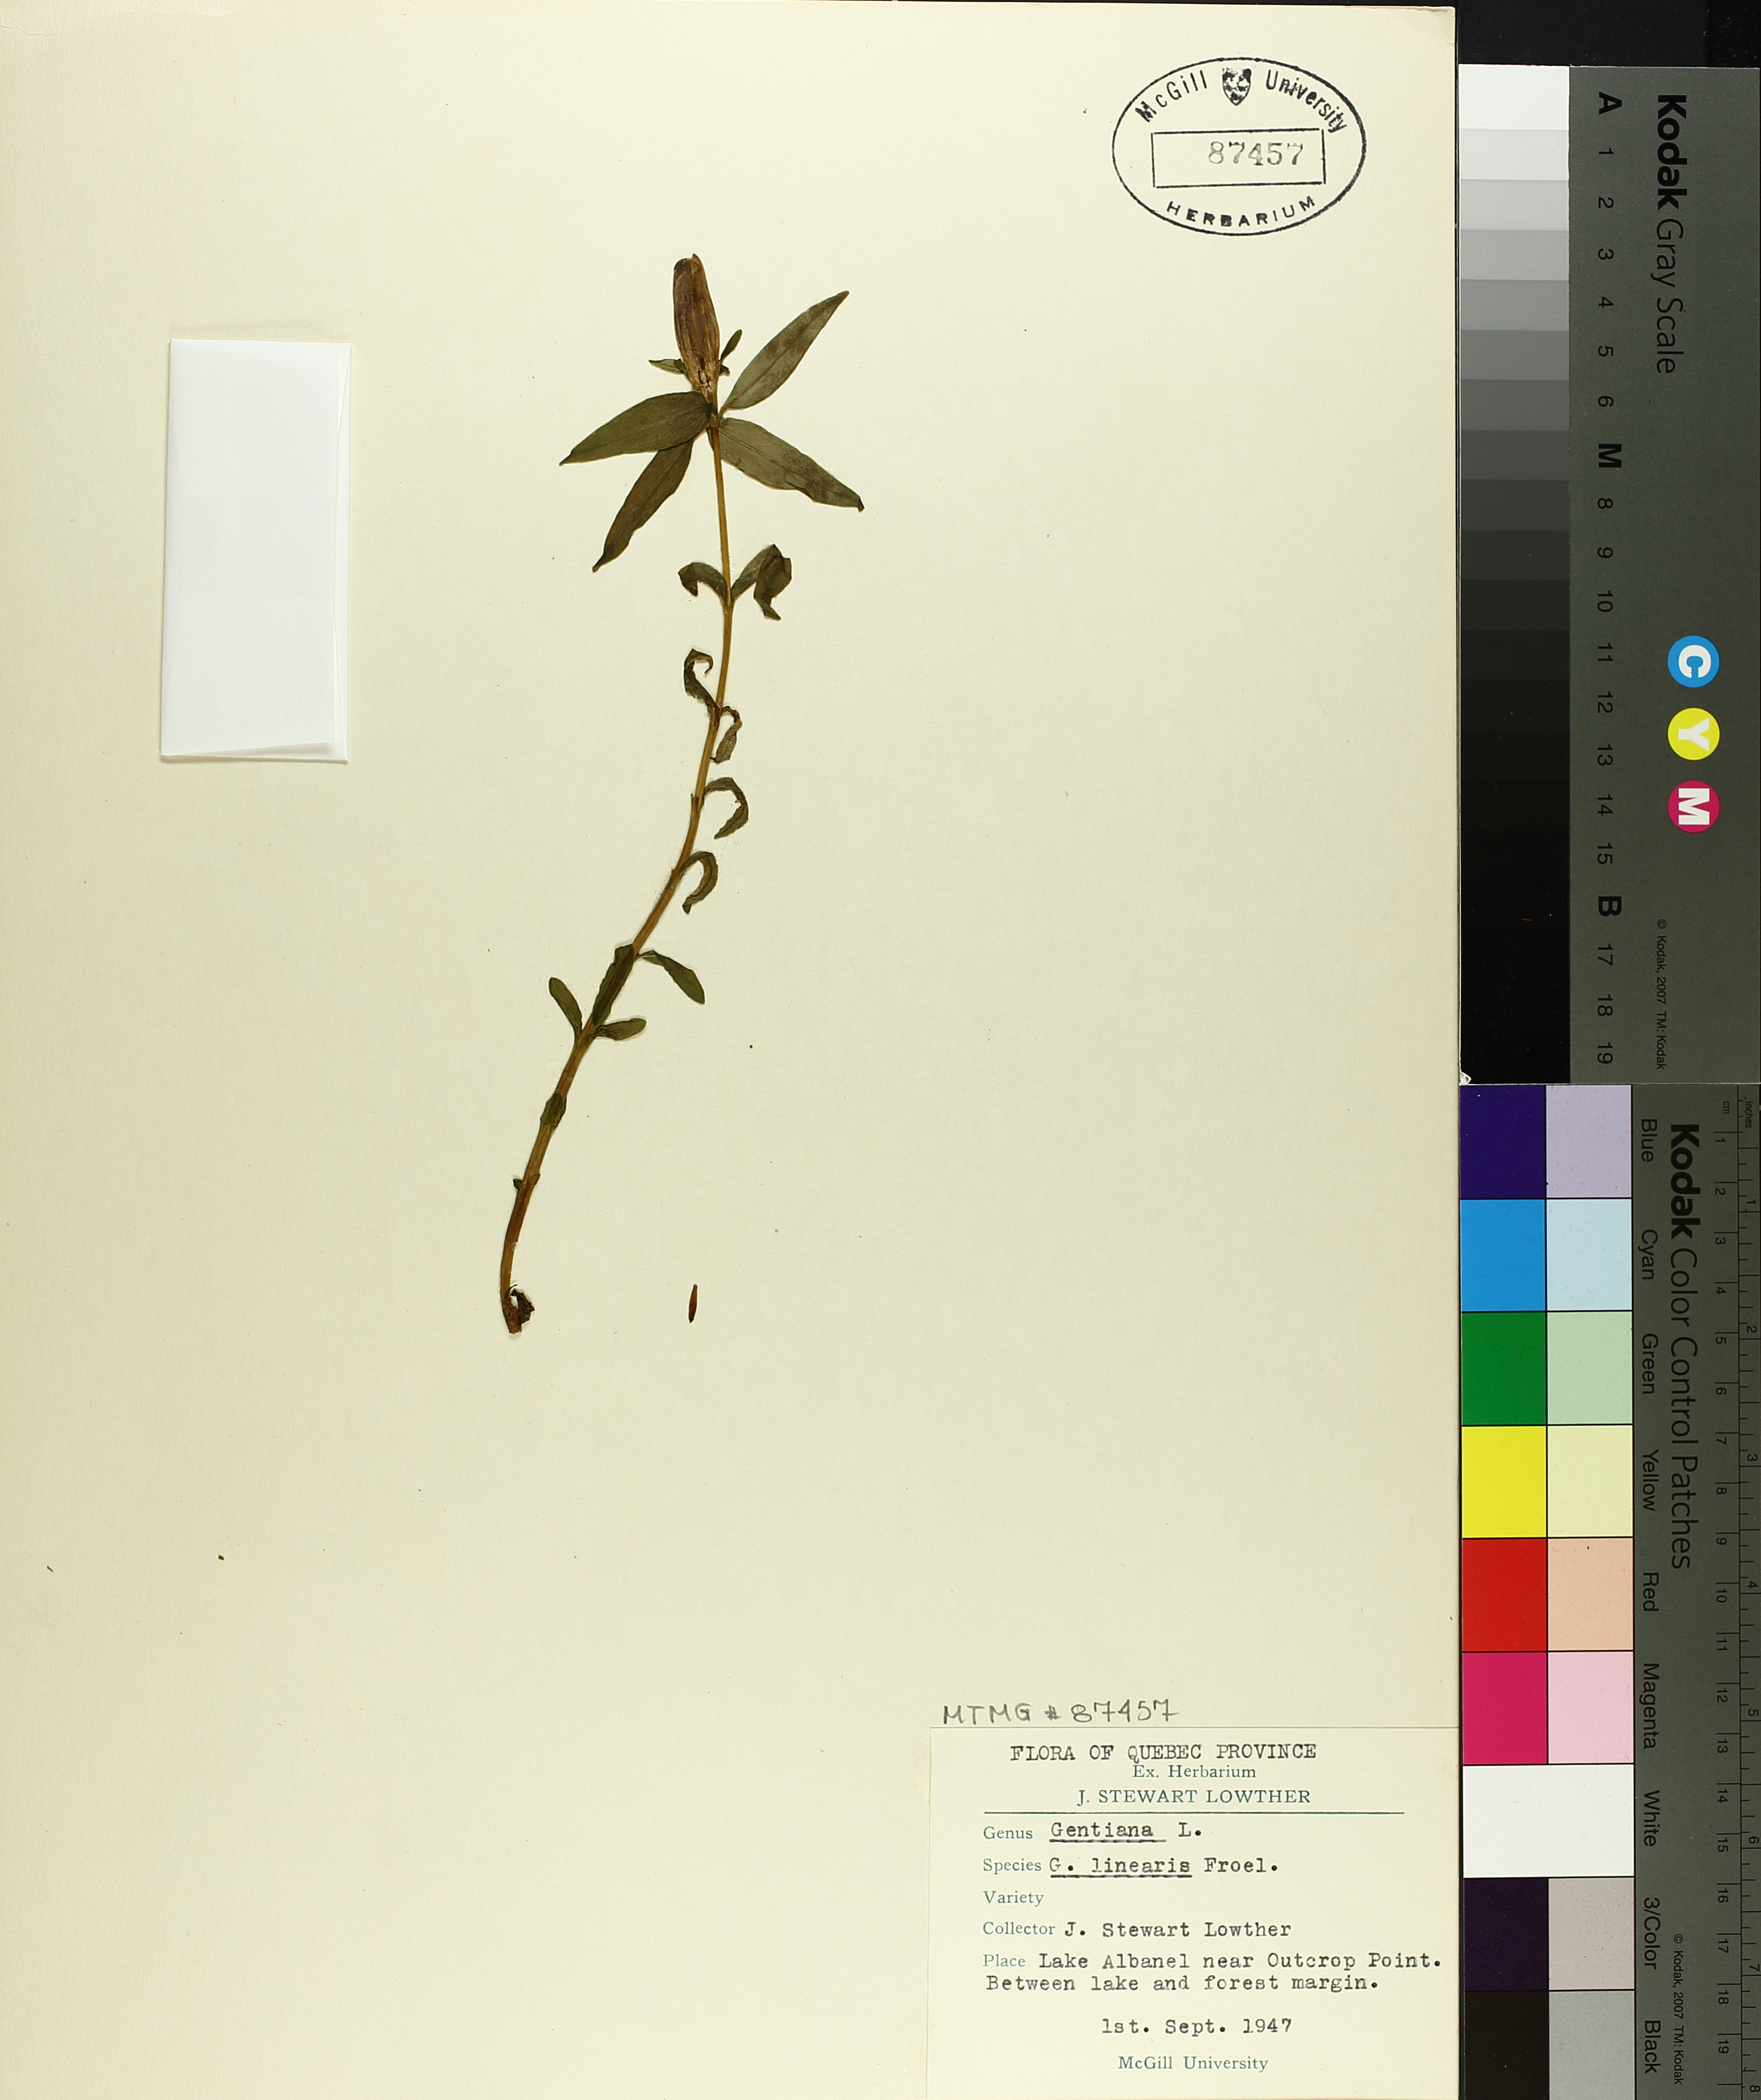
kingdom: Plantae
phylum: Tracheophyta
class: Magnoliopsida
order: Gentianales
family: Gentianaceae
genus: Gentiana
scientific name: Gentiana linearis
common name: Bastard gentian
